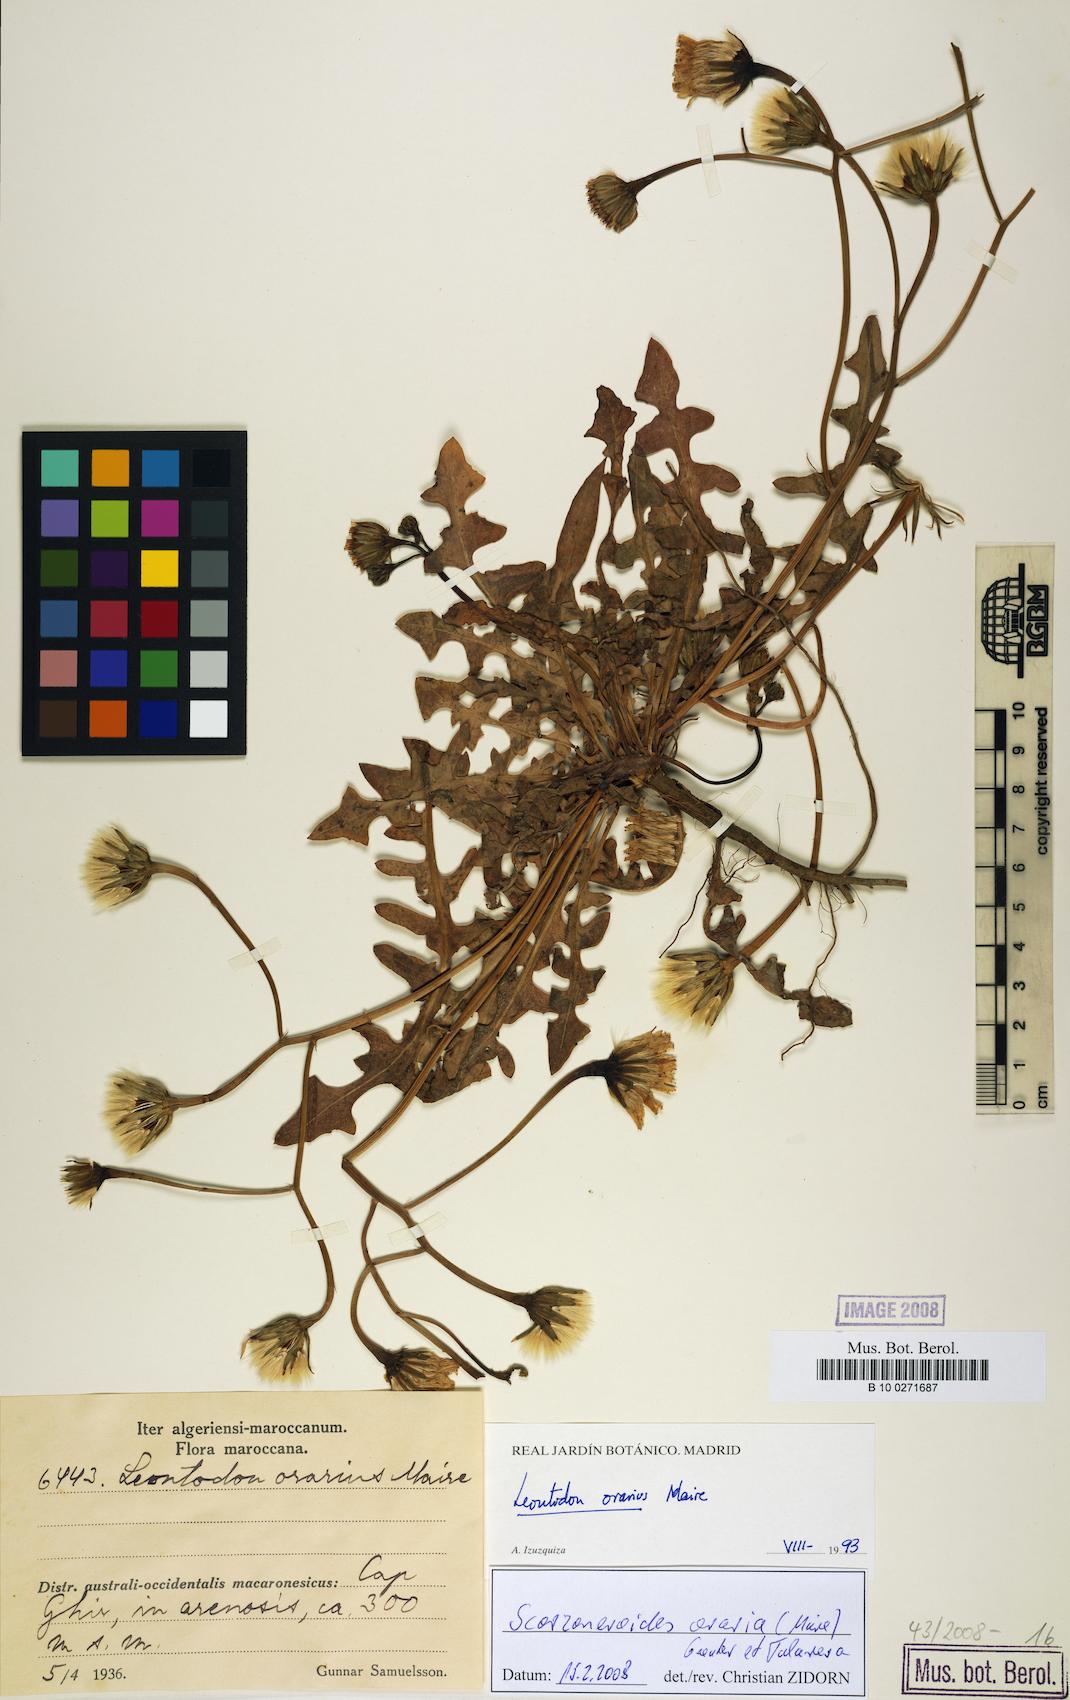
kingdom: Plantae
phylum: Tracheophyta
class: Magnoliopsida
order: Asterales
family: Asteraceae
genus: Scorzoneroides
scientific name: Scorzoneroides oraria
